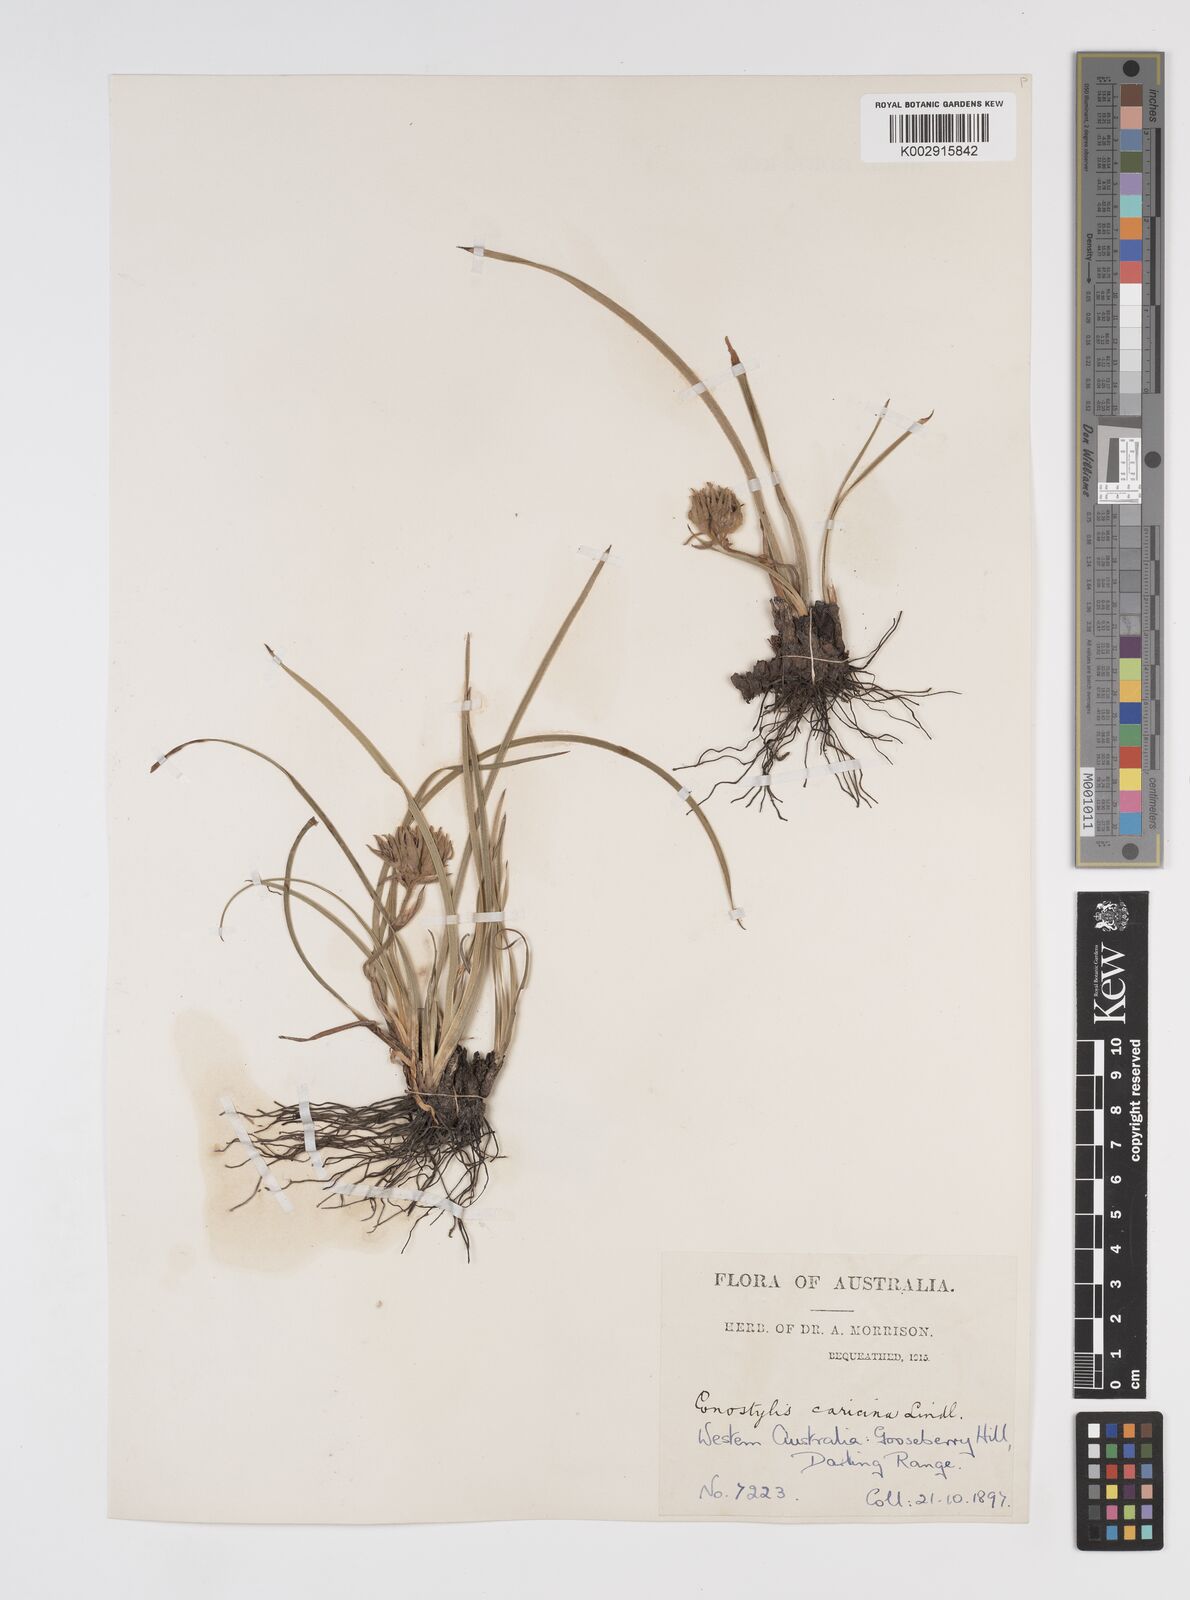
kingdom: Plantae
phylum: Tracheophyta
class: Liliopsida
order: Commelinales
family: Haemodoraceae
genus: Conostylis
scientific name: Conostylis caricina
